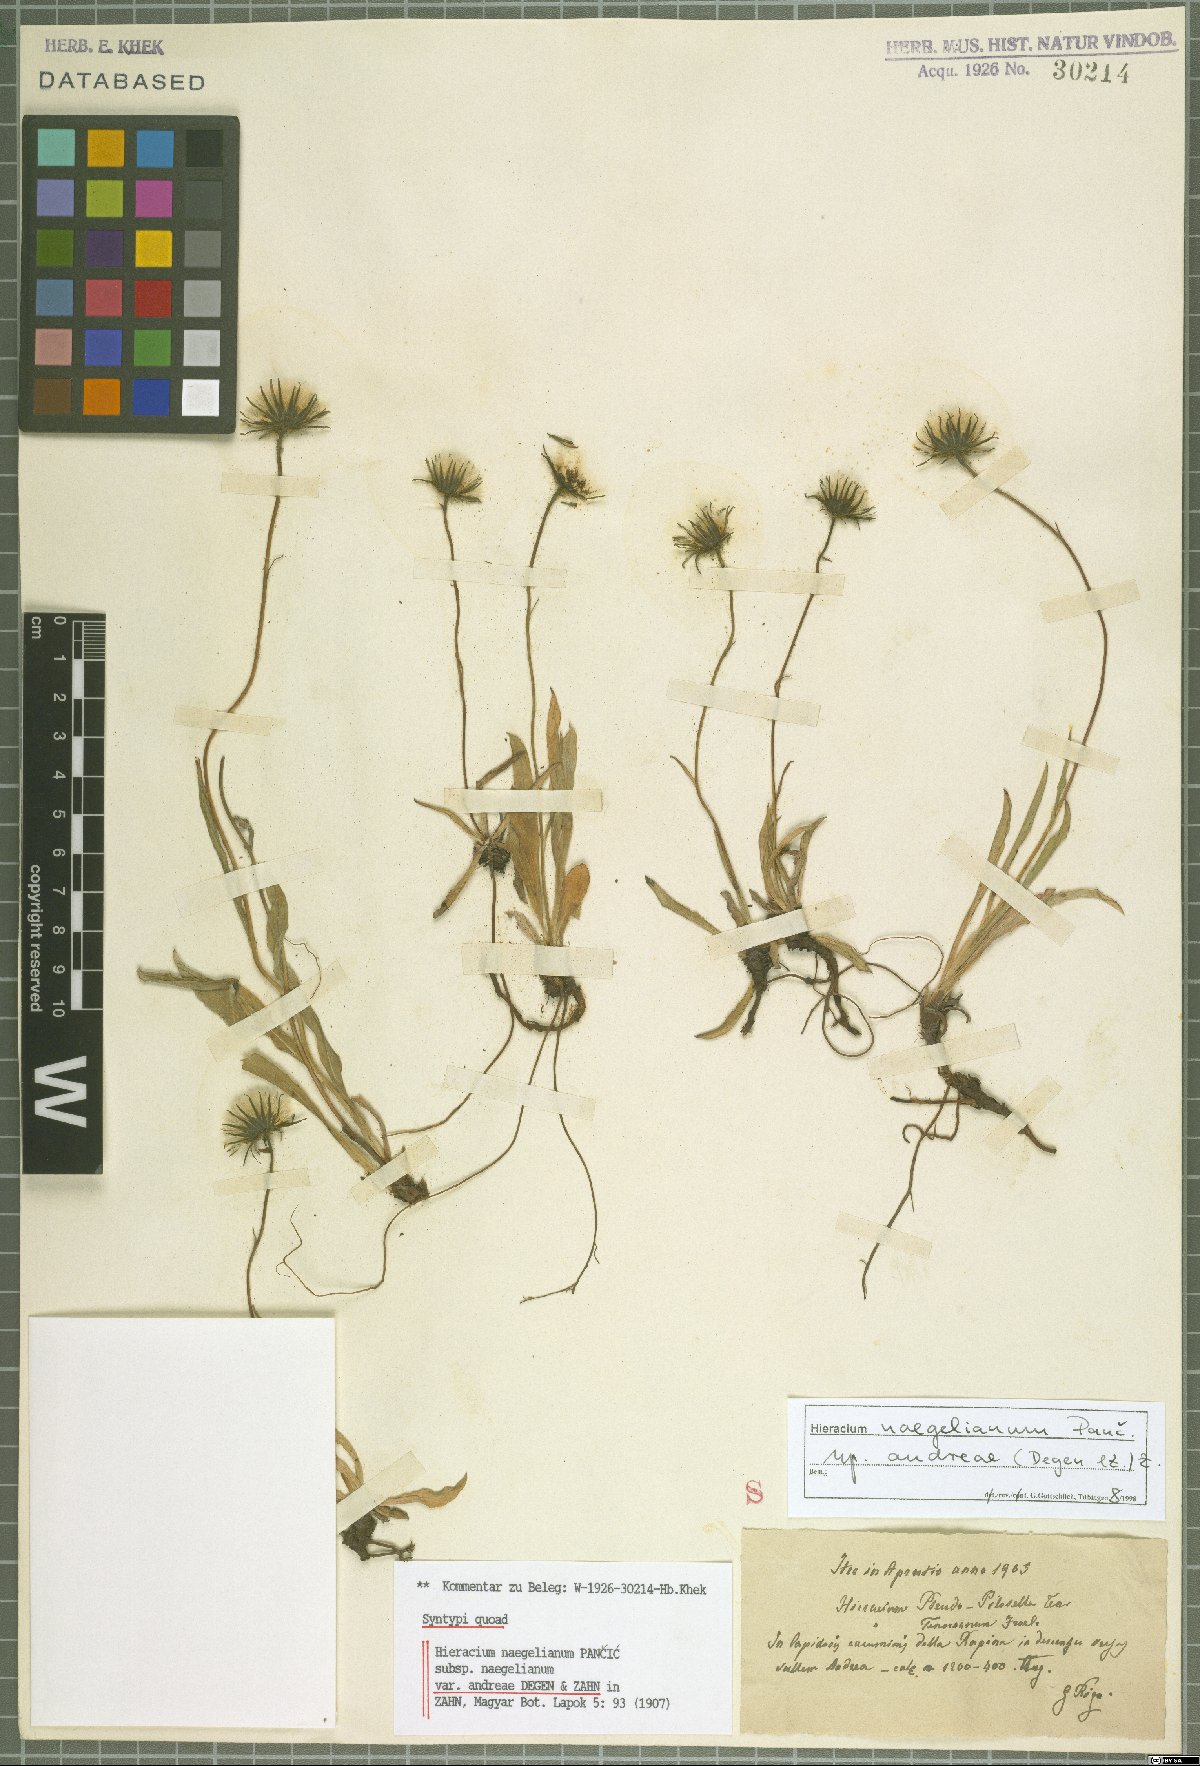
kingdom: Plantae
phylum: Tracheophyta
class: Magnoliopsida
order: Asterales
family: Asteraceae
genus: Hieracium
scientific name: Hieracium naegelianum
